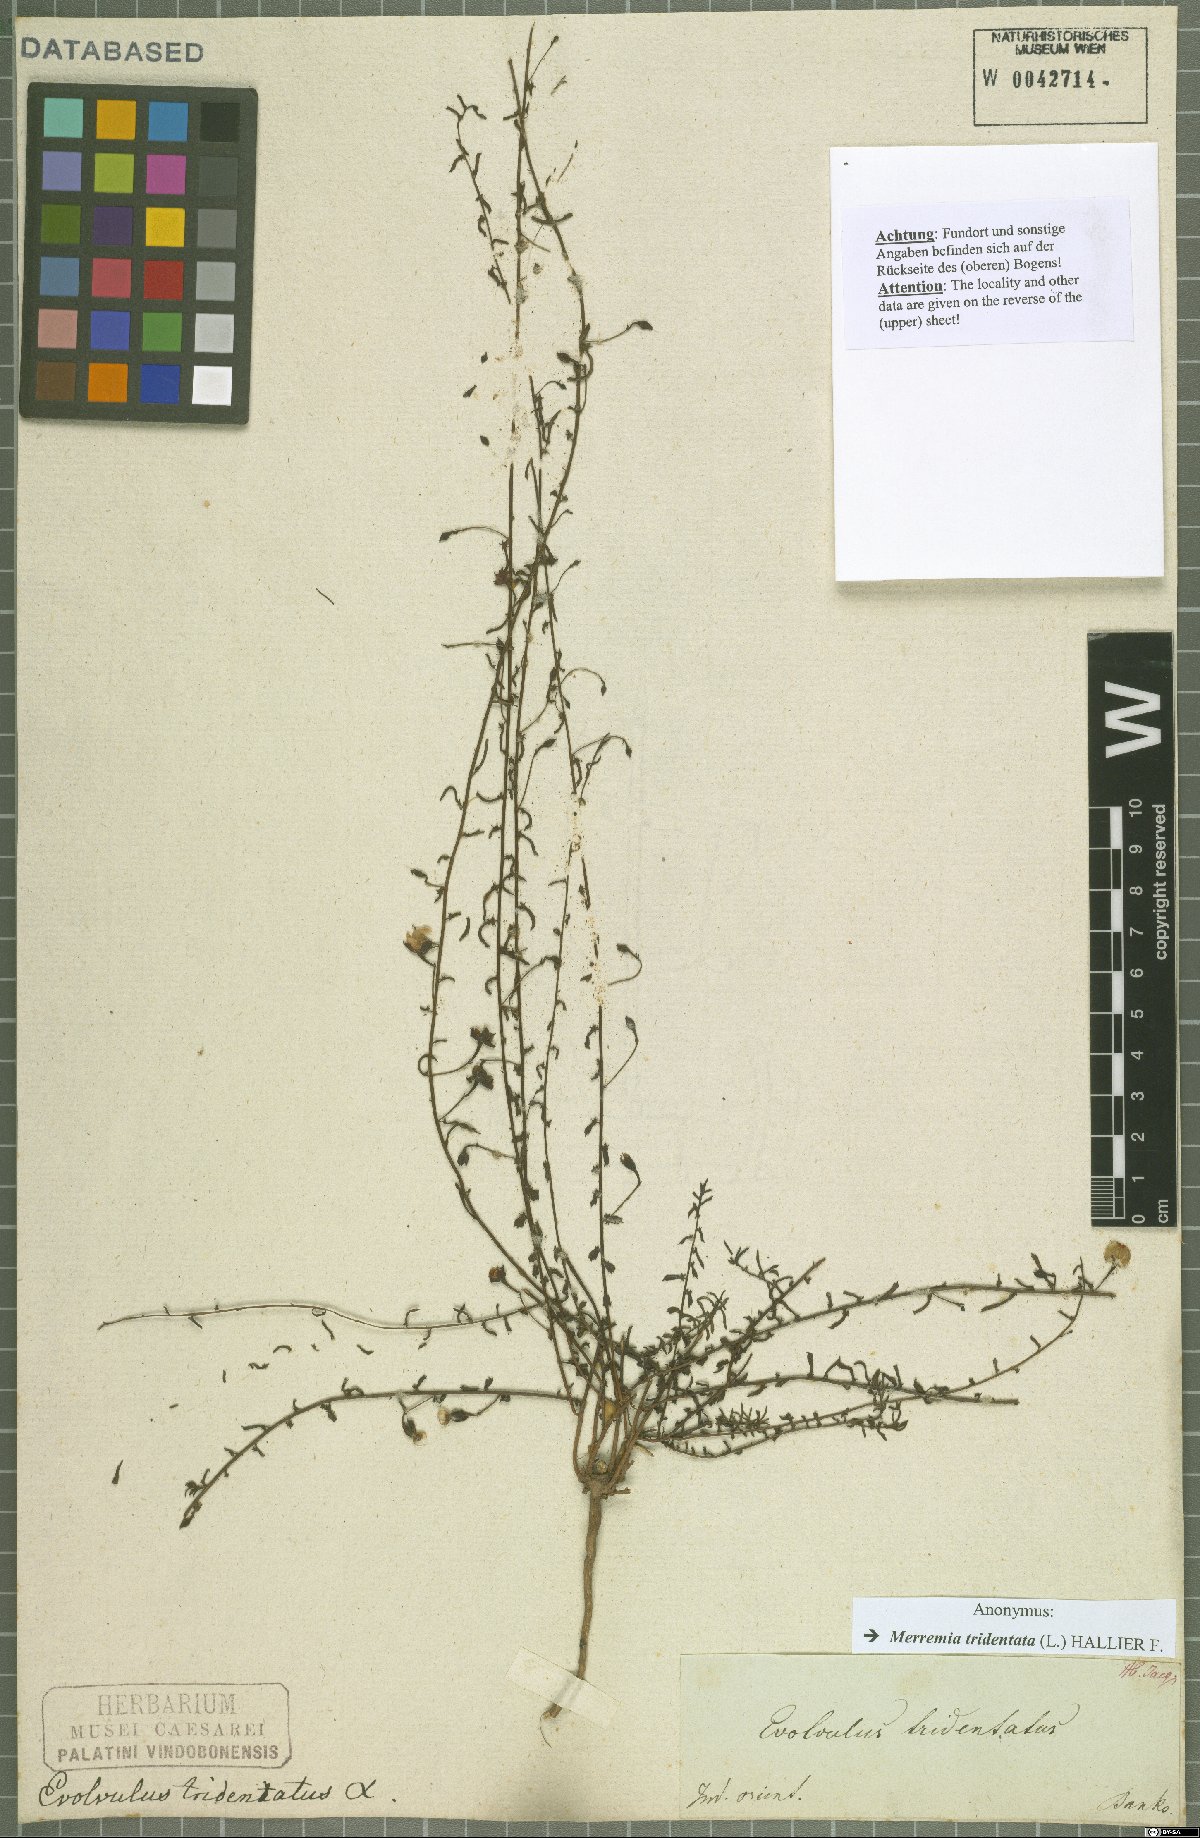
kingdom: Plantae
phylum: Tracheophyta
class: Magnoliopsida
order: Solanales
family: Convolvulaceae
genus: Xenostegia
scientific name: Xenostegia tridentata
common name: African morningvine
